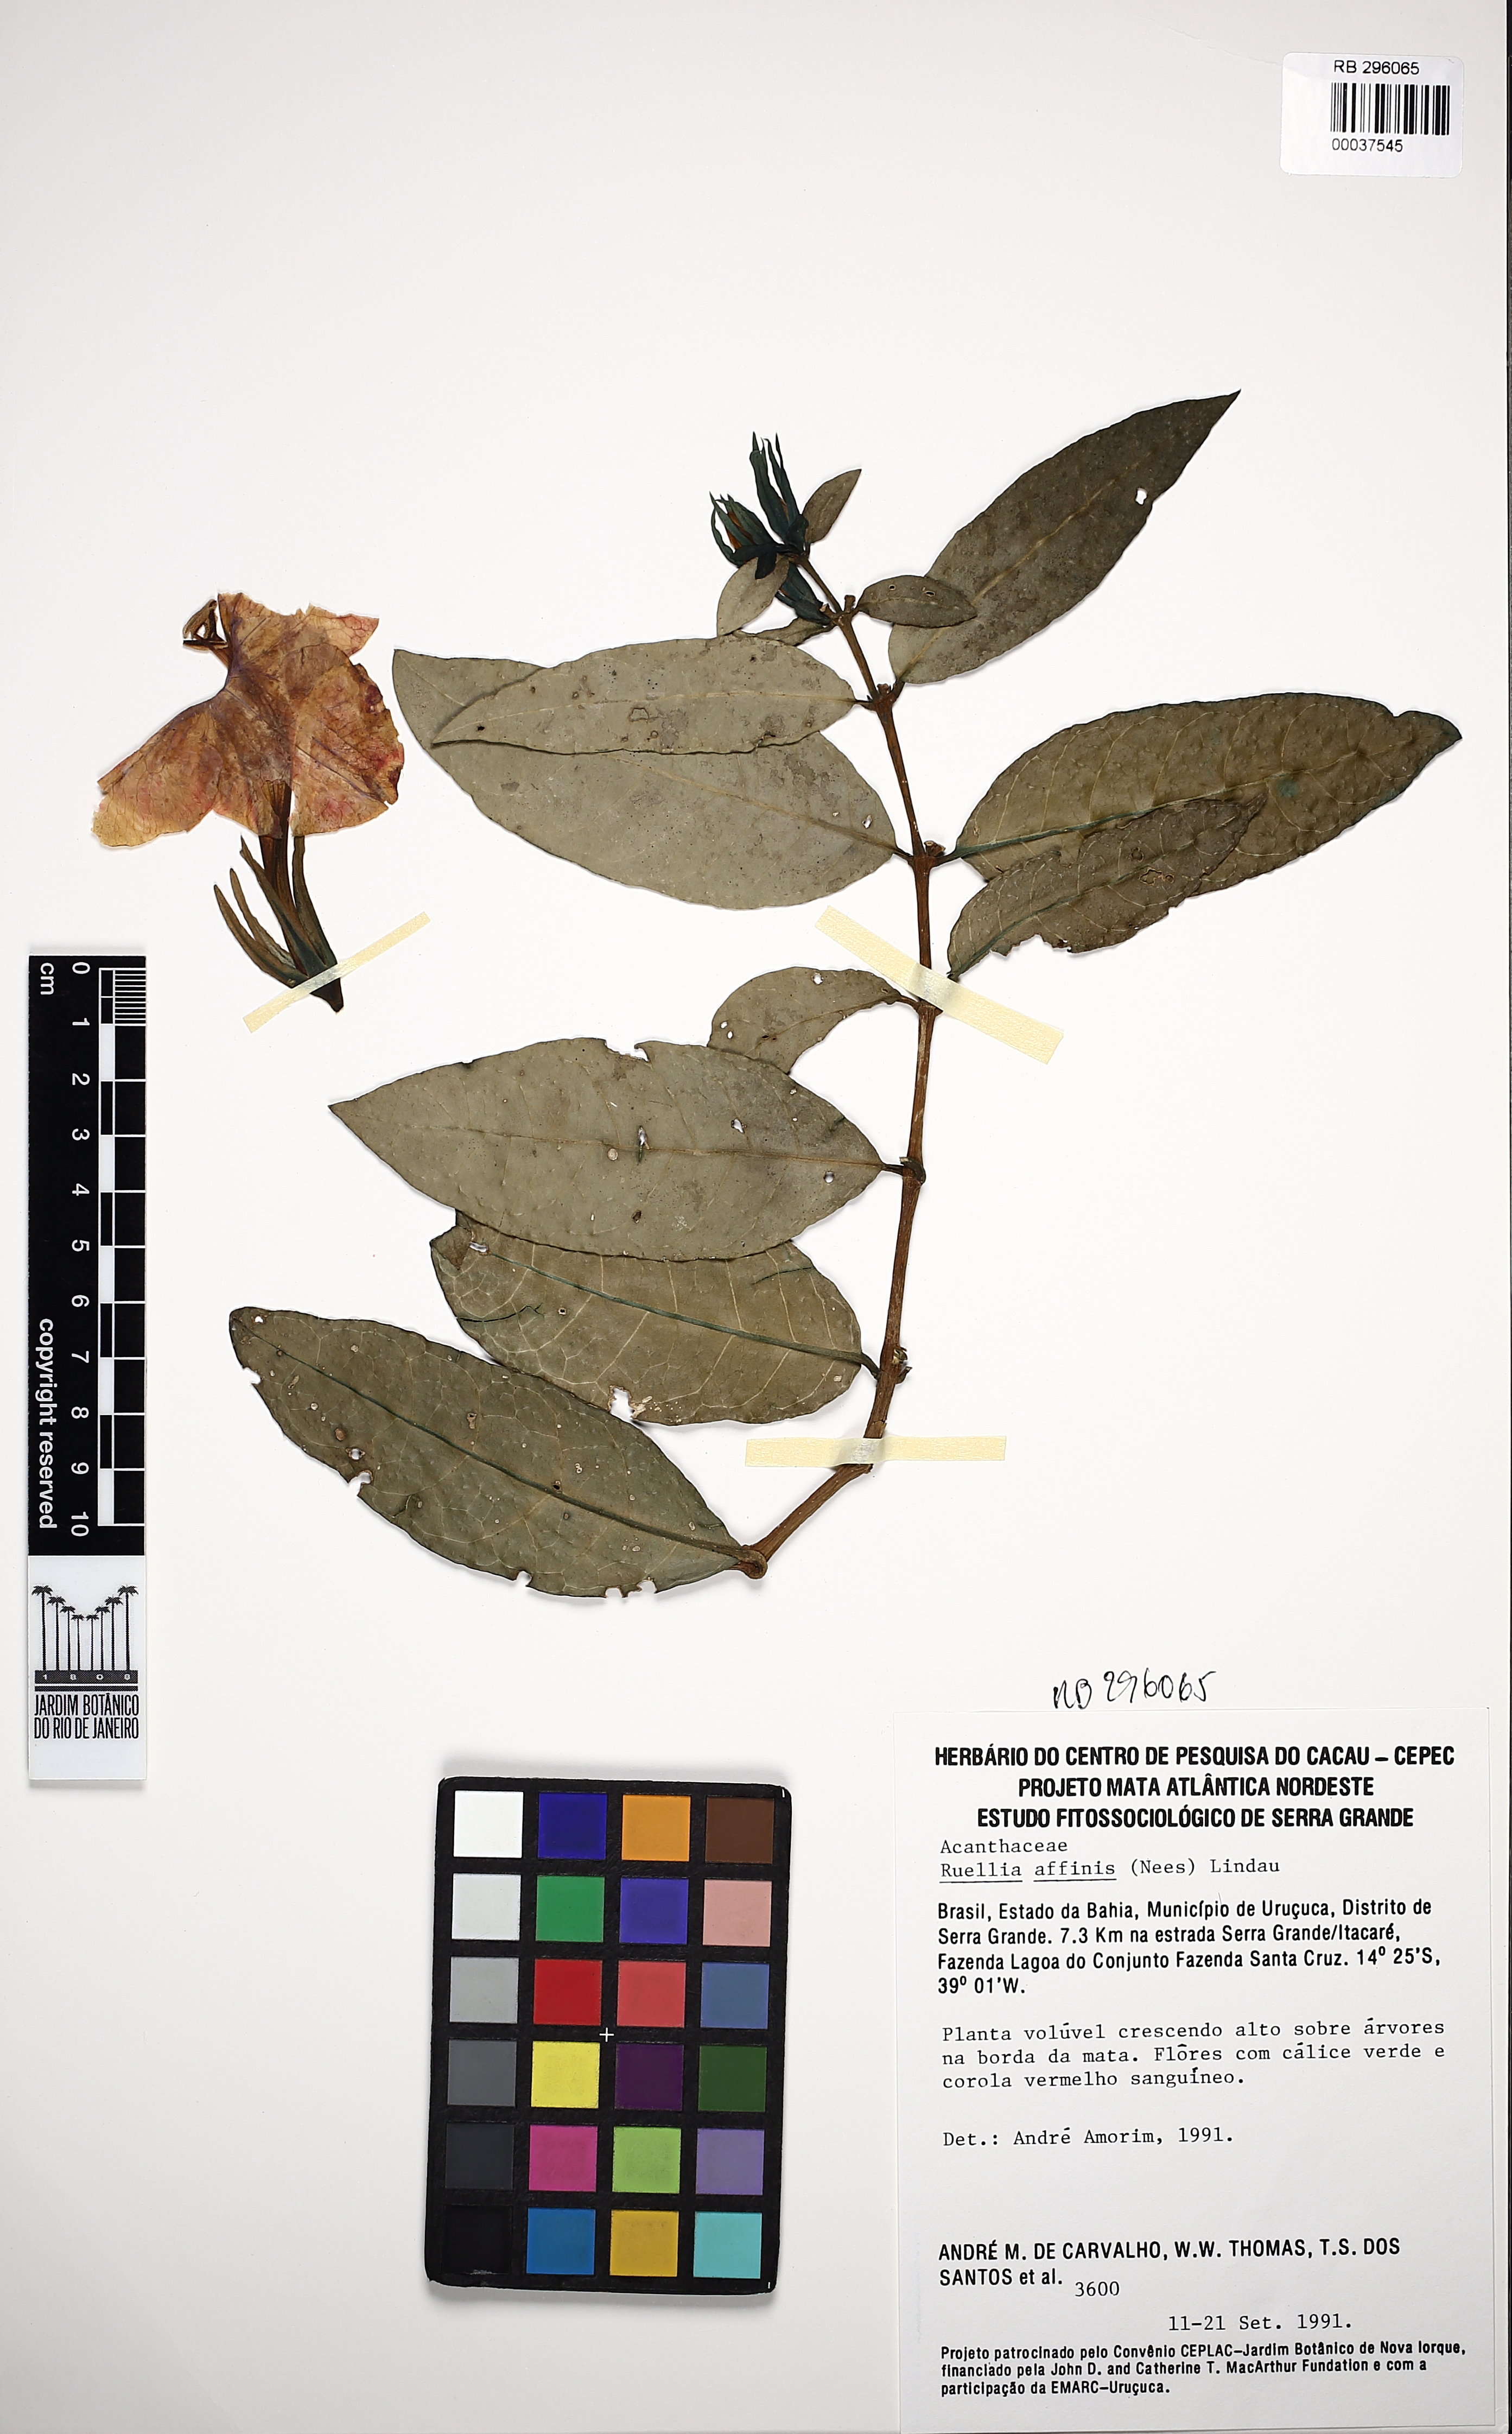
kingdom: Plantae
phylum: Tracheophyta
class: Magnoliopsida
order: Lamiales
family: Acanthaceae
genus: Ruellia
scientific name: Ruellia affinis
